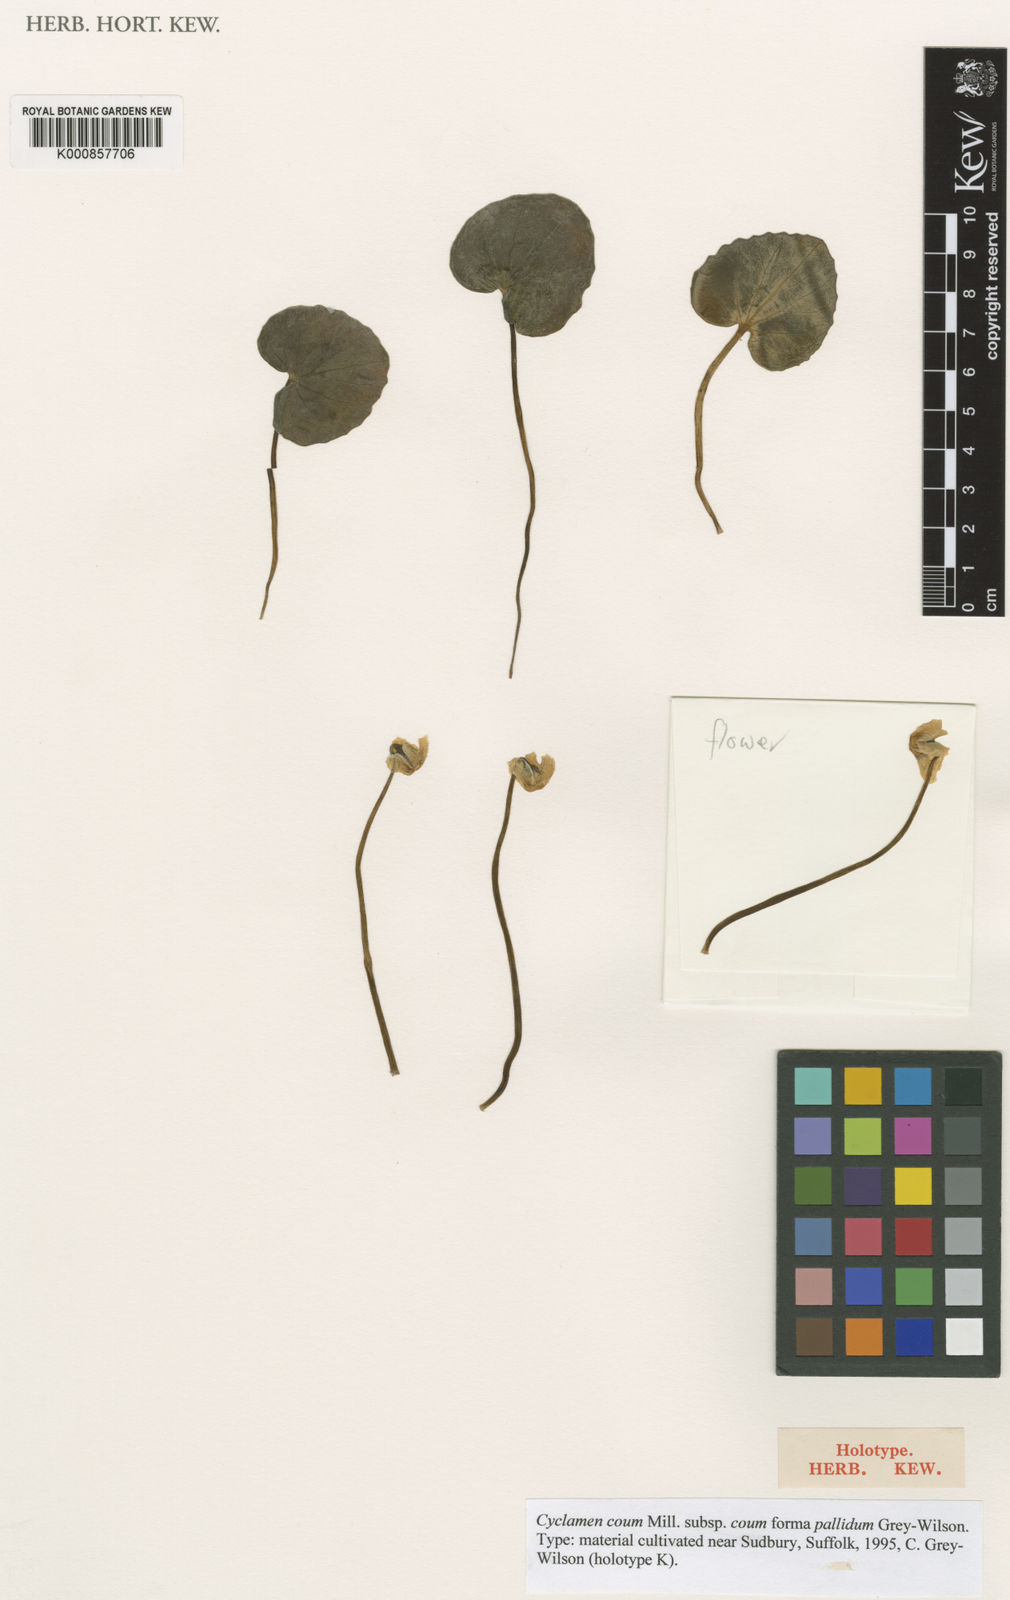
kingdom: Plantae
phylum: Tracheophyta
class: Magnoliopsida
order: Ericales
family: Primulaceae
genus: Cyclamen
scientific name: Cyclamen coum
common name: Eastern sowbread
